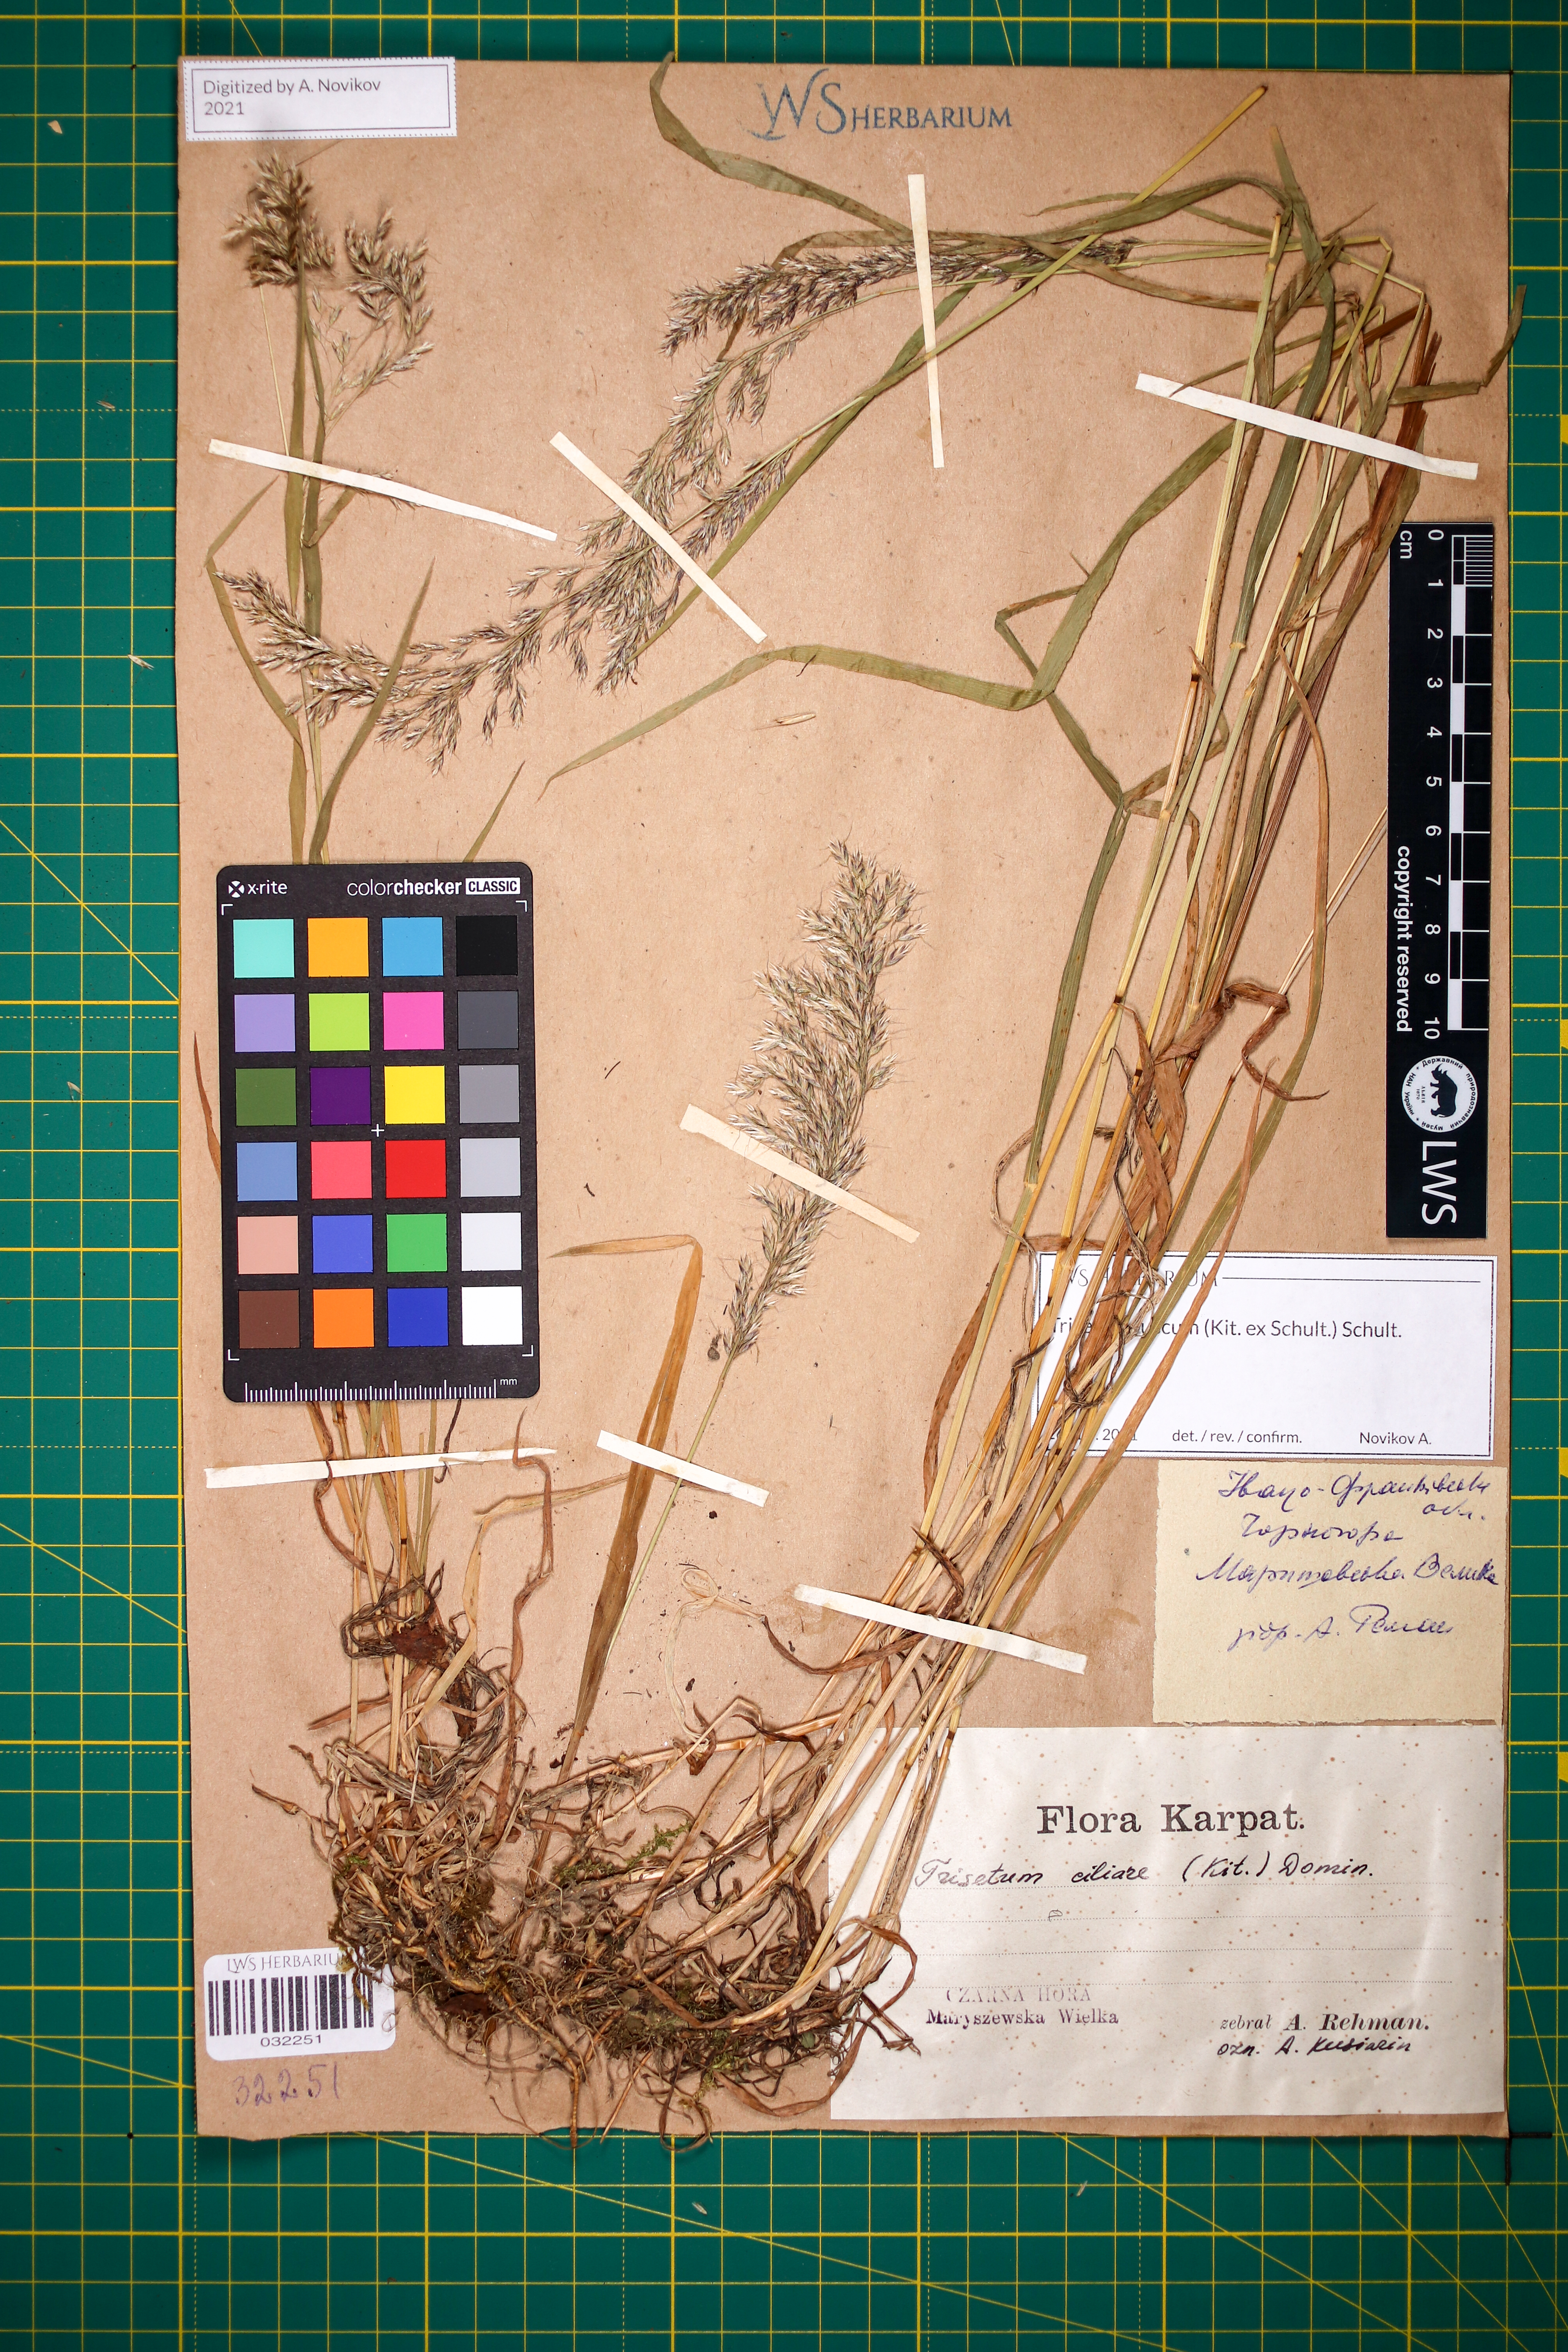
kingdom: Plantae
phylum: Tracheophyta
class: Liliopsida
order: Poales
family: Poaceae
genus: Trisetum
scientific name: Trisetum fuscum
